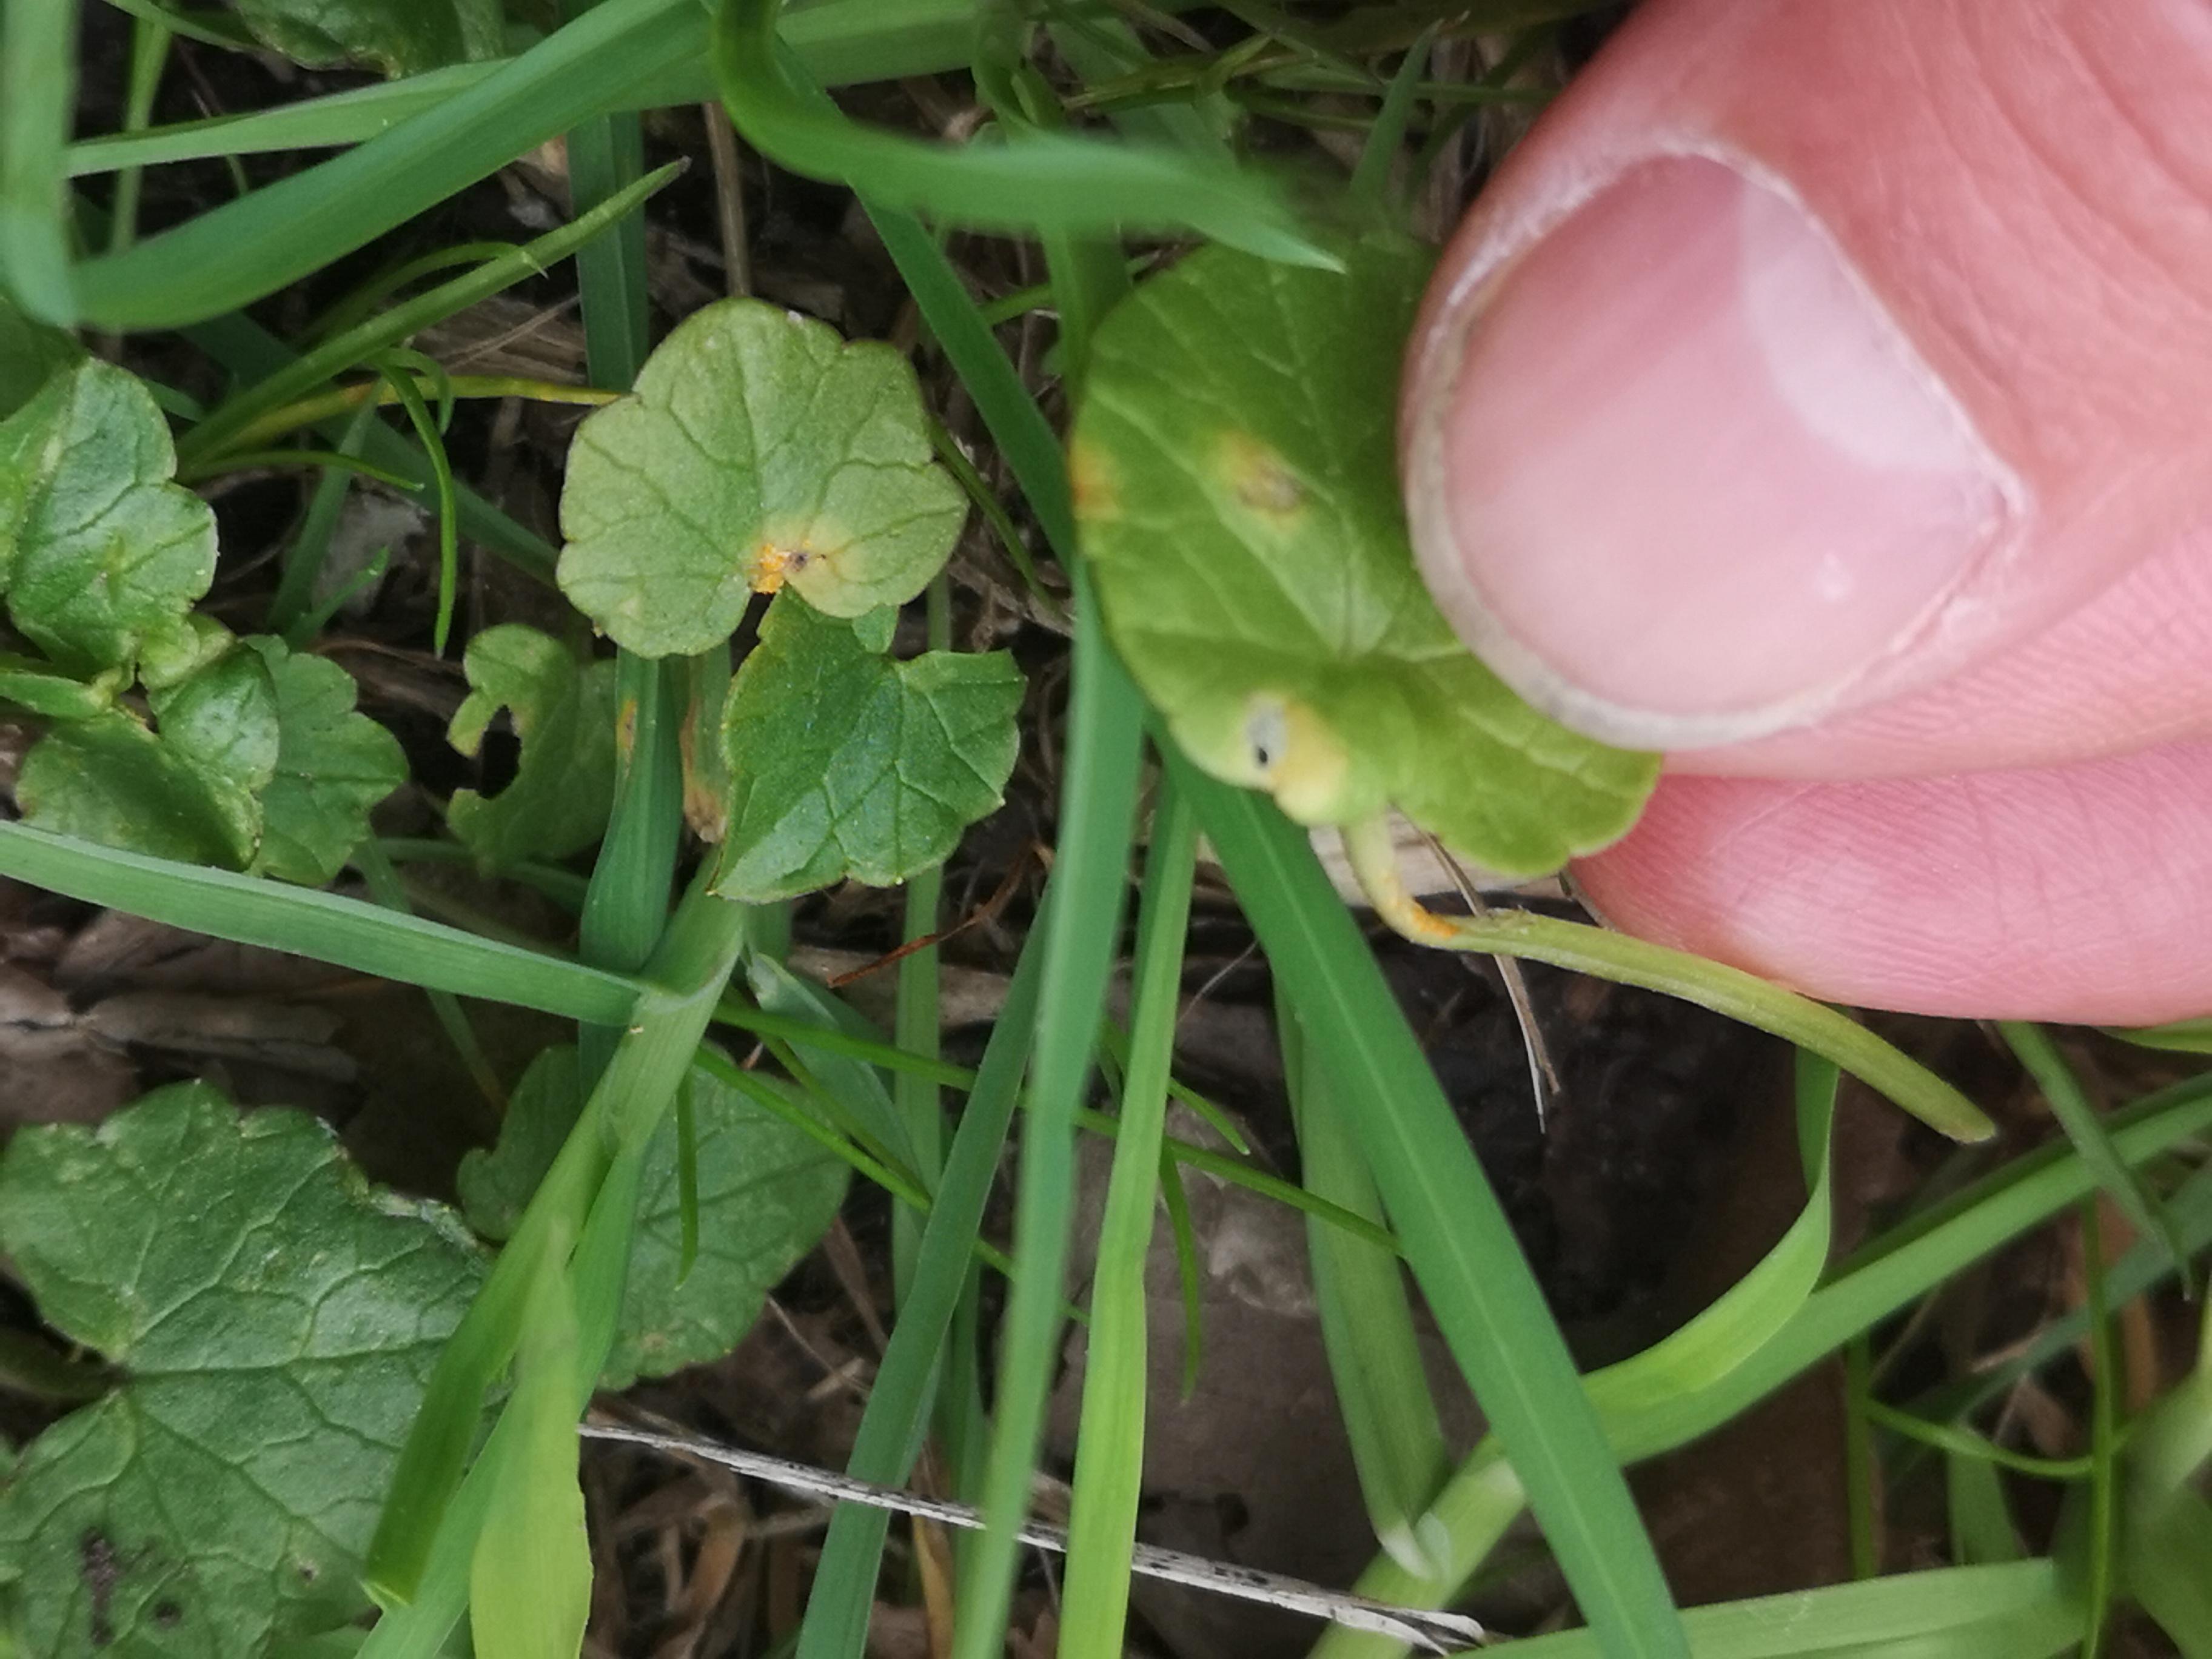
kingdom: Fungi
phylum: Basidiomycota
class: Pucciniomycetes
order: Pucciniales
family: Pucciniaceae
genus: Uromyces
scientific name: Uromyces dactylidis
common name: ranunkel-encellerust
